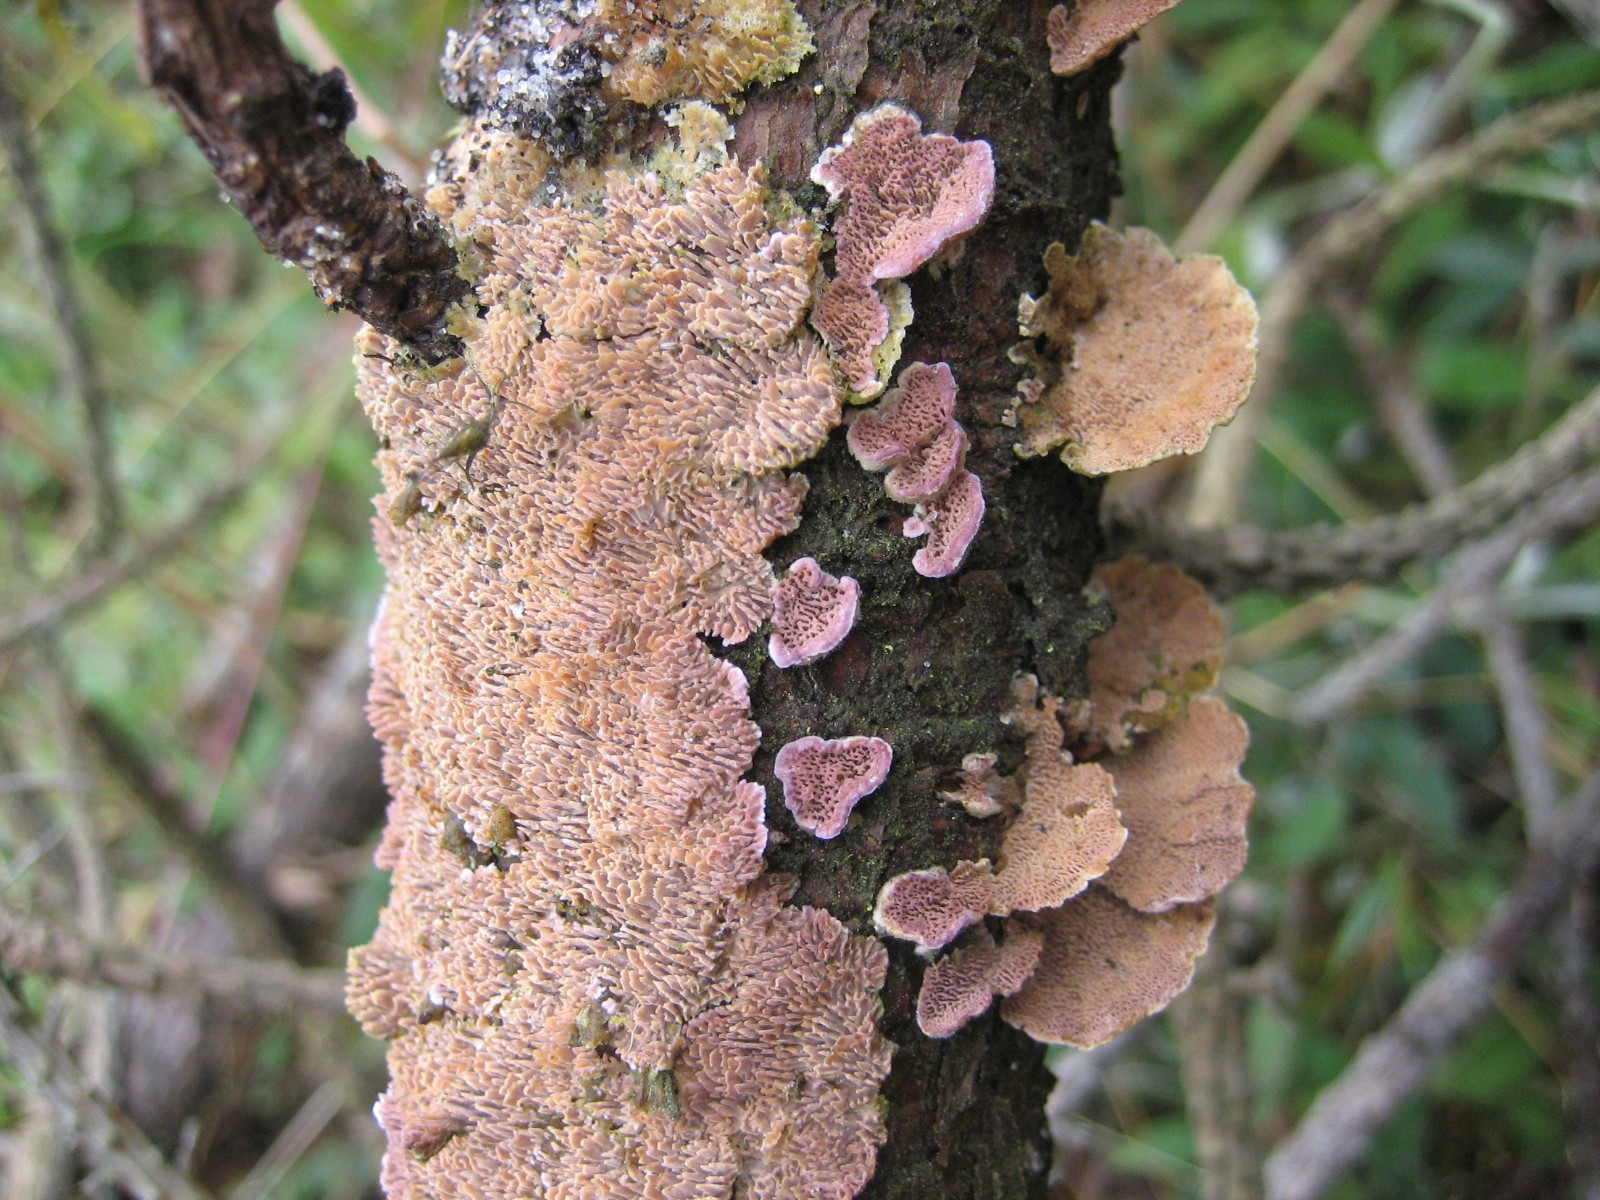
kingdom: Fungi
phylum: Basidiomycota
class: Agaricomycetes
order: Hymenochaetales
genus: Trichaptum
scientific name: Trichaptum fuscoviolaceum
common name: tandet violporesvamp
